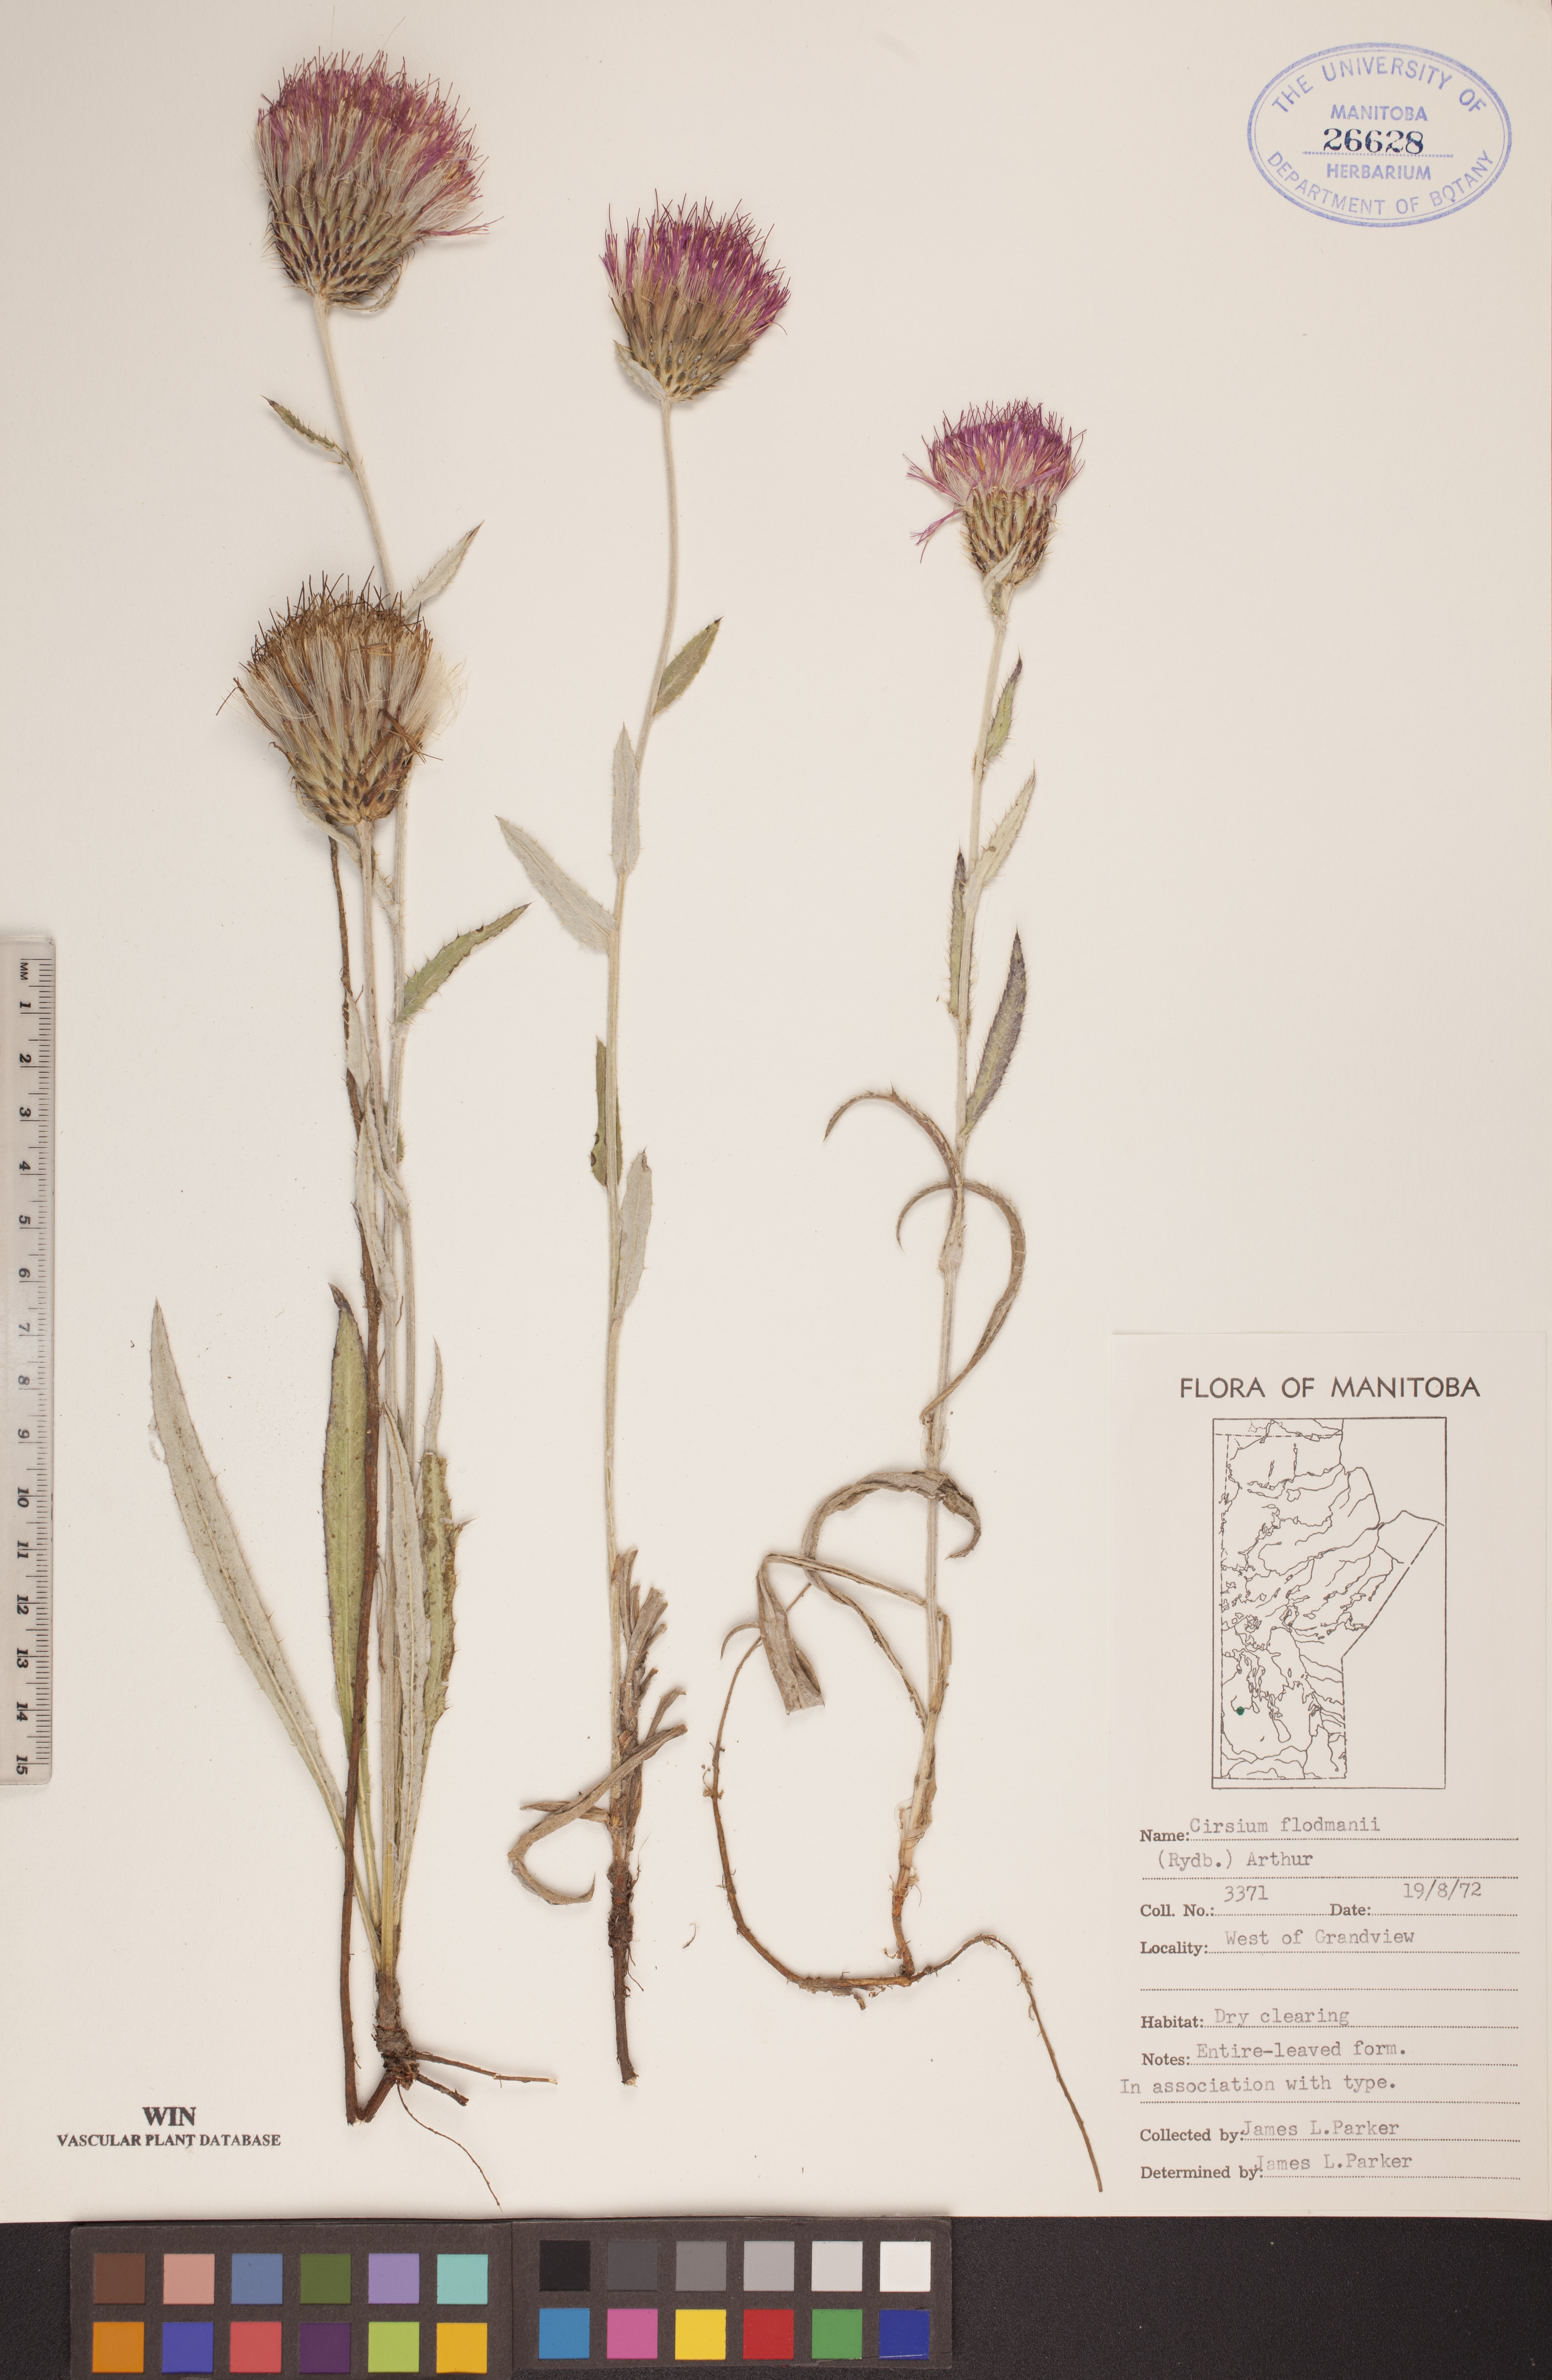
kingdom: Plantae
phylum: Tracheophyta
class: Magnoliopsida
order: Asterales
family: Asteraceae
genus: Cirsium
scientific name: Cirsium flodmanii
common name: Flodman's thistle
